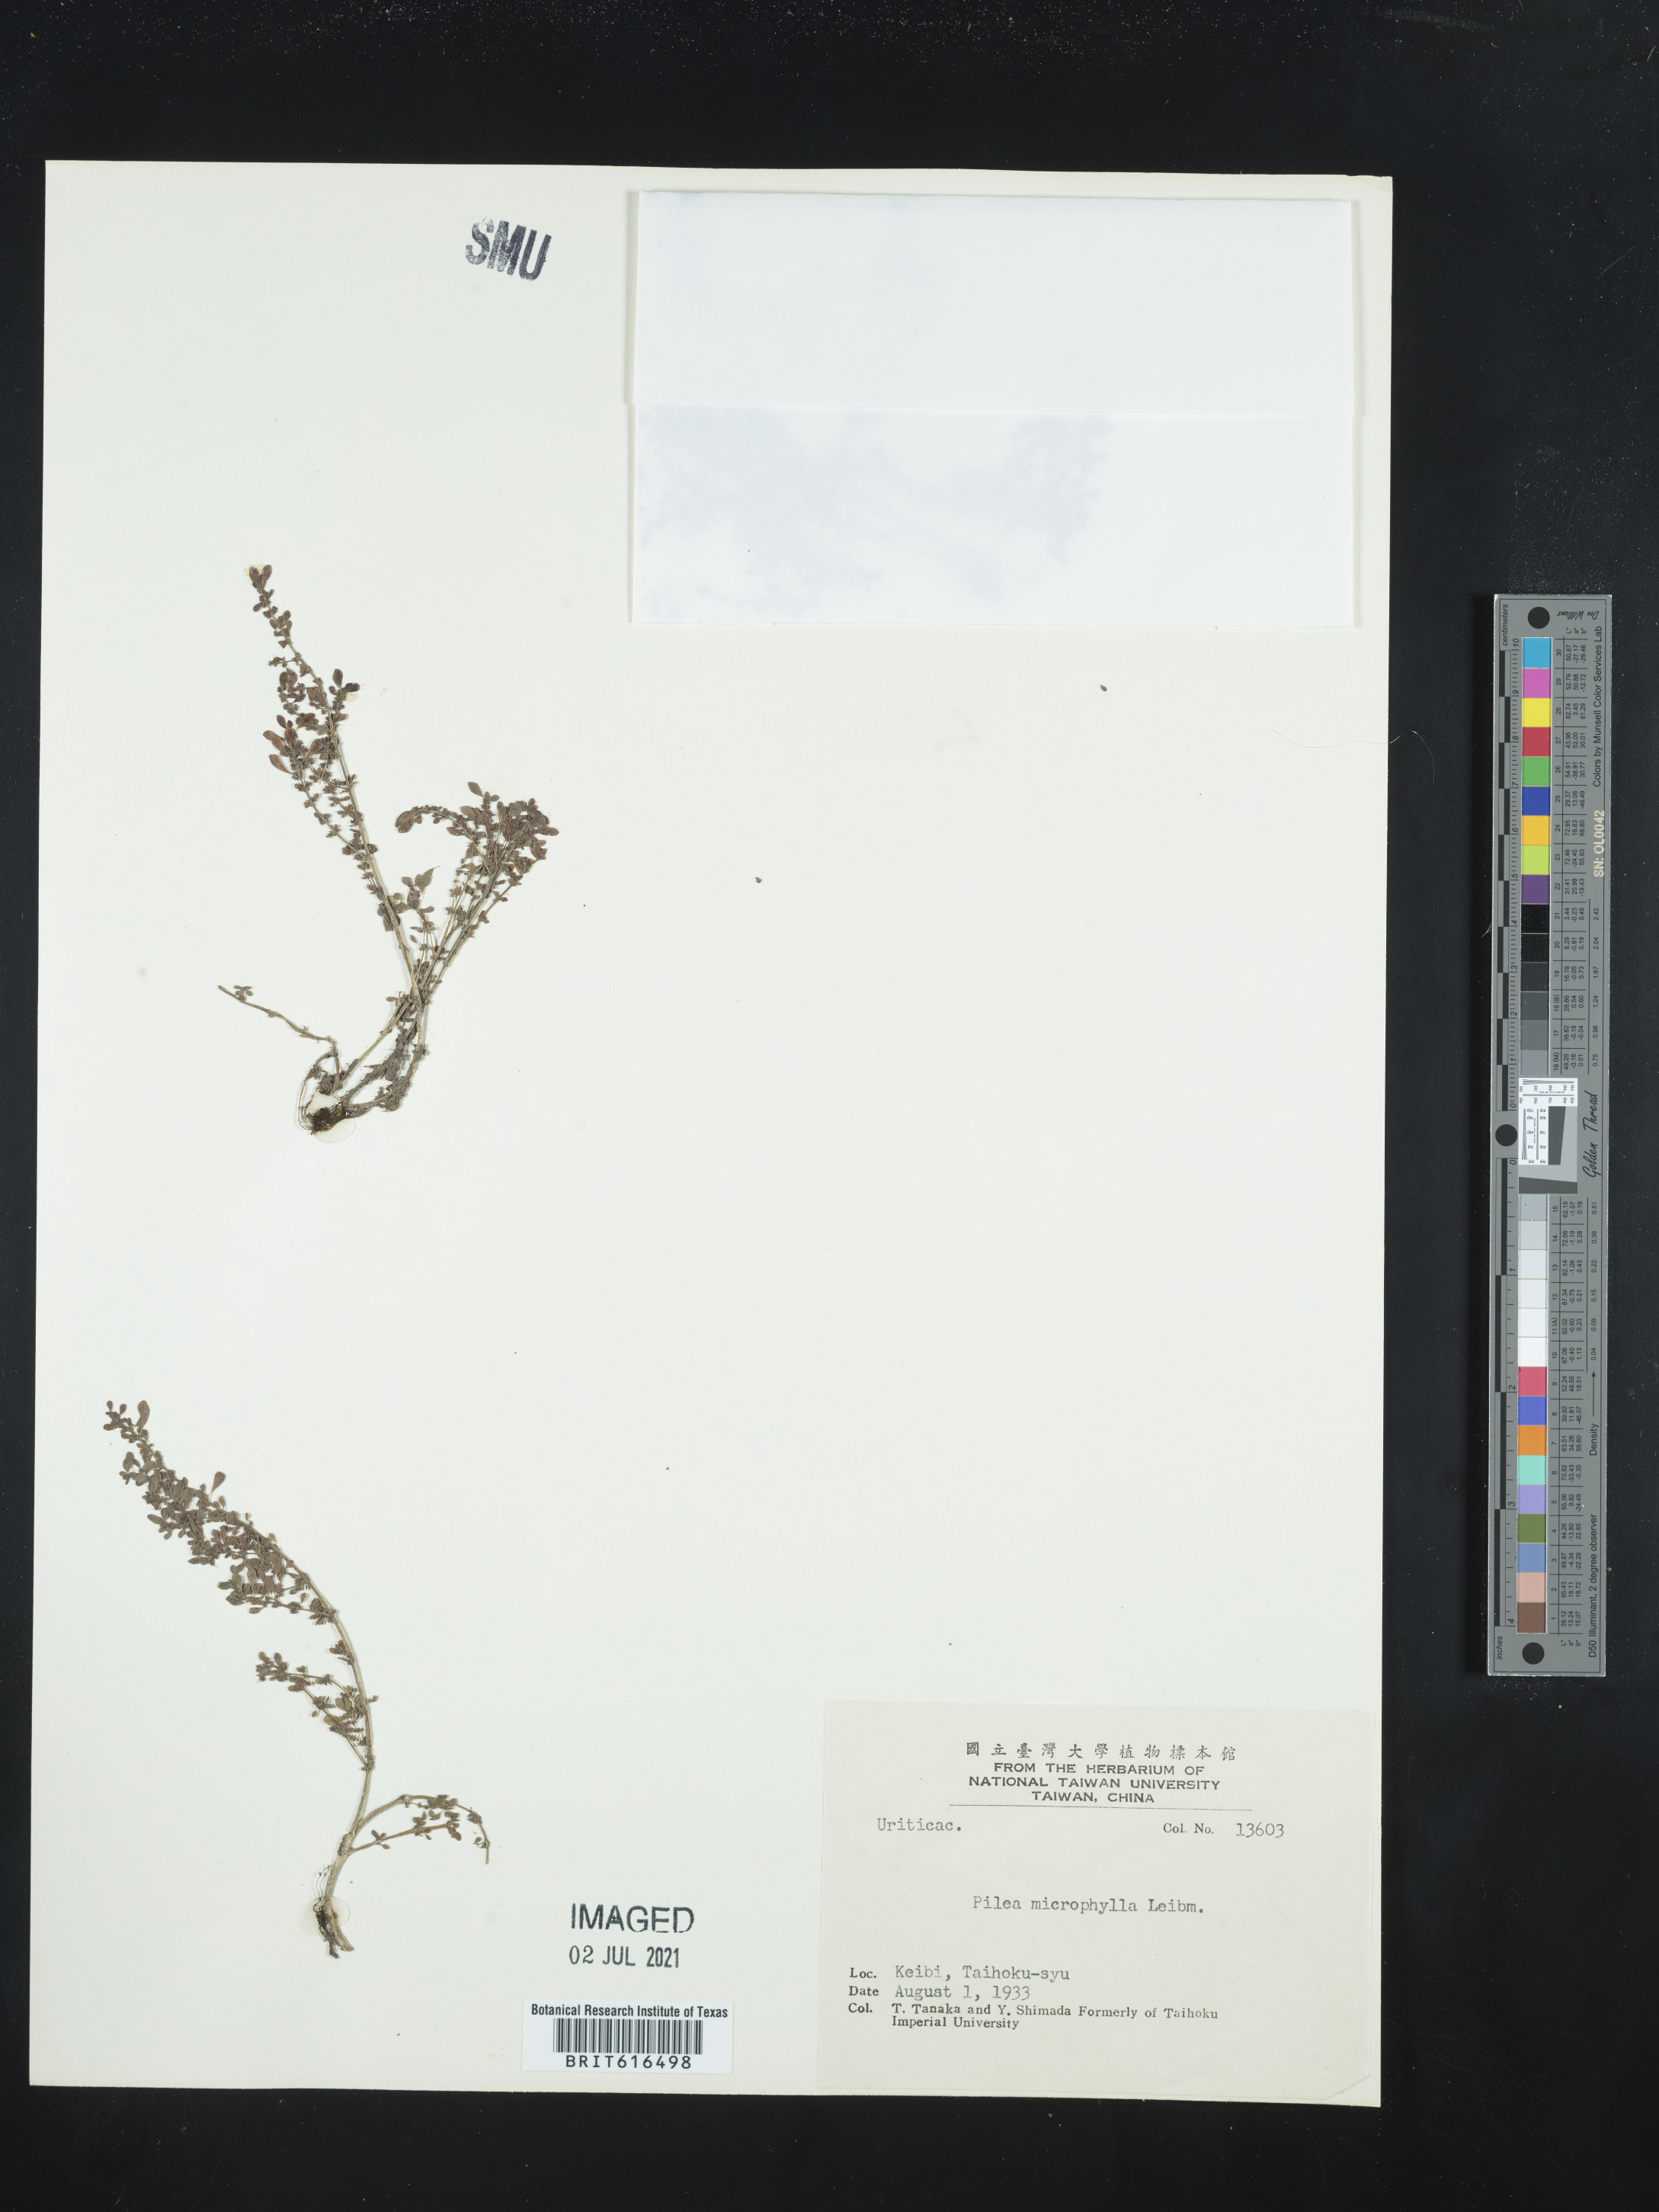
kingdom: Plantae
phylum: Tracheophyta
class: Magnoliopsida
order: Rosales
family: Urticaceae
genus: Pilea
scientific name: Pilea microphylla
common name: Artillery-plant
